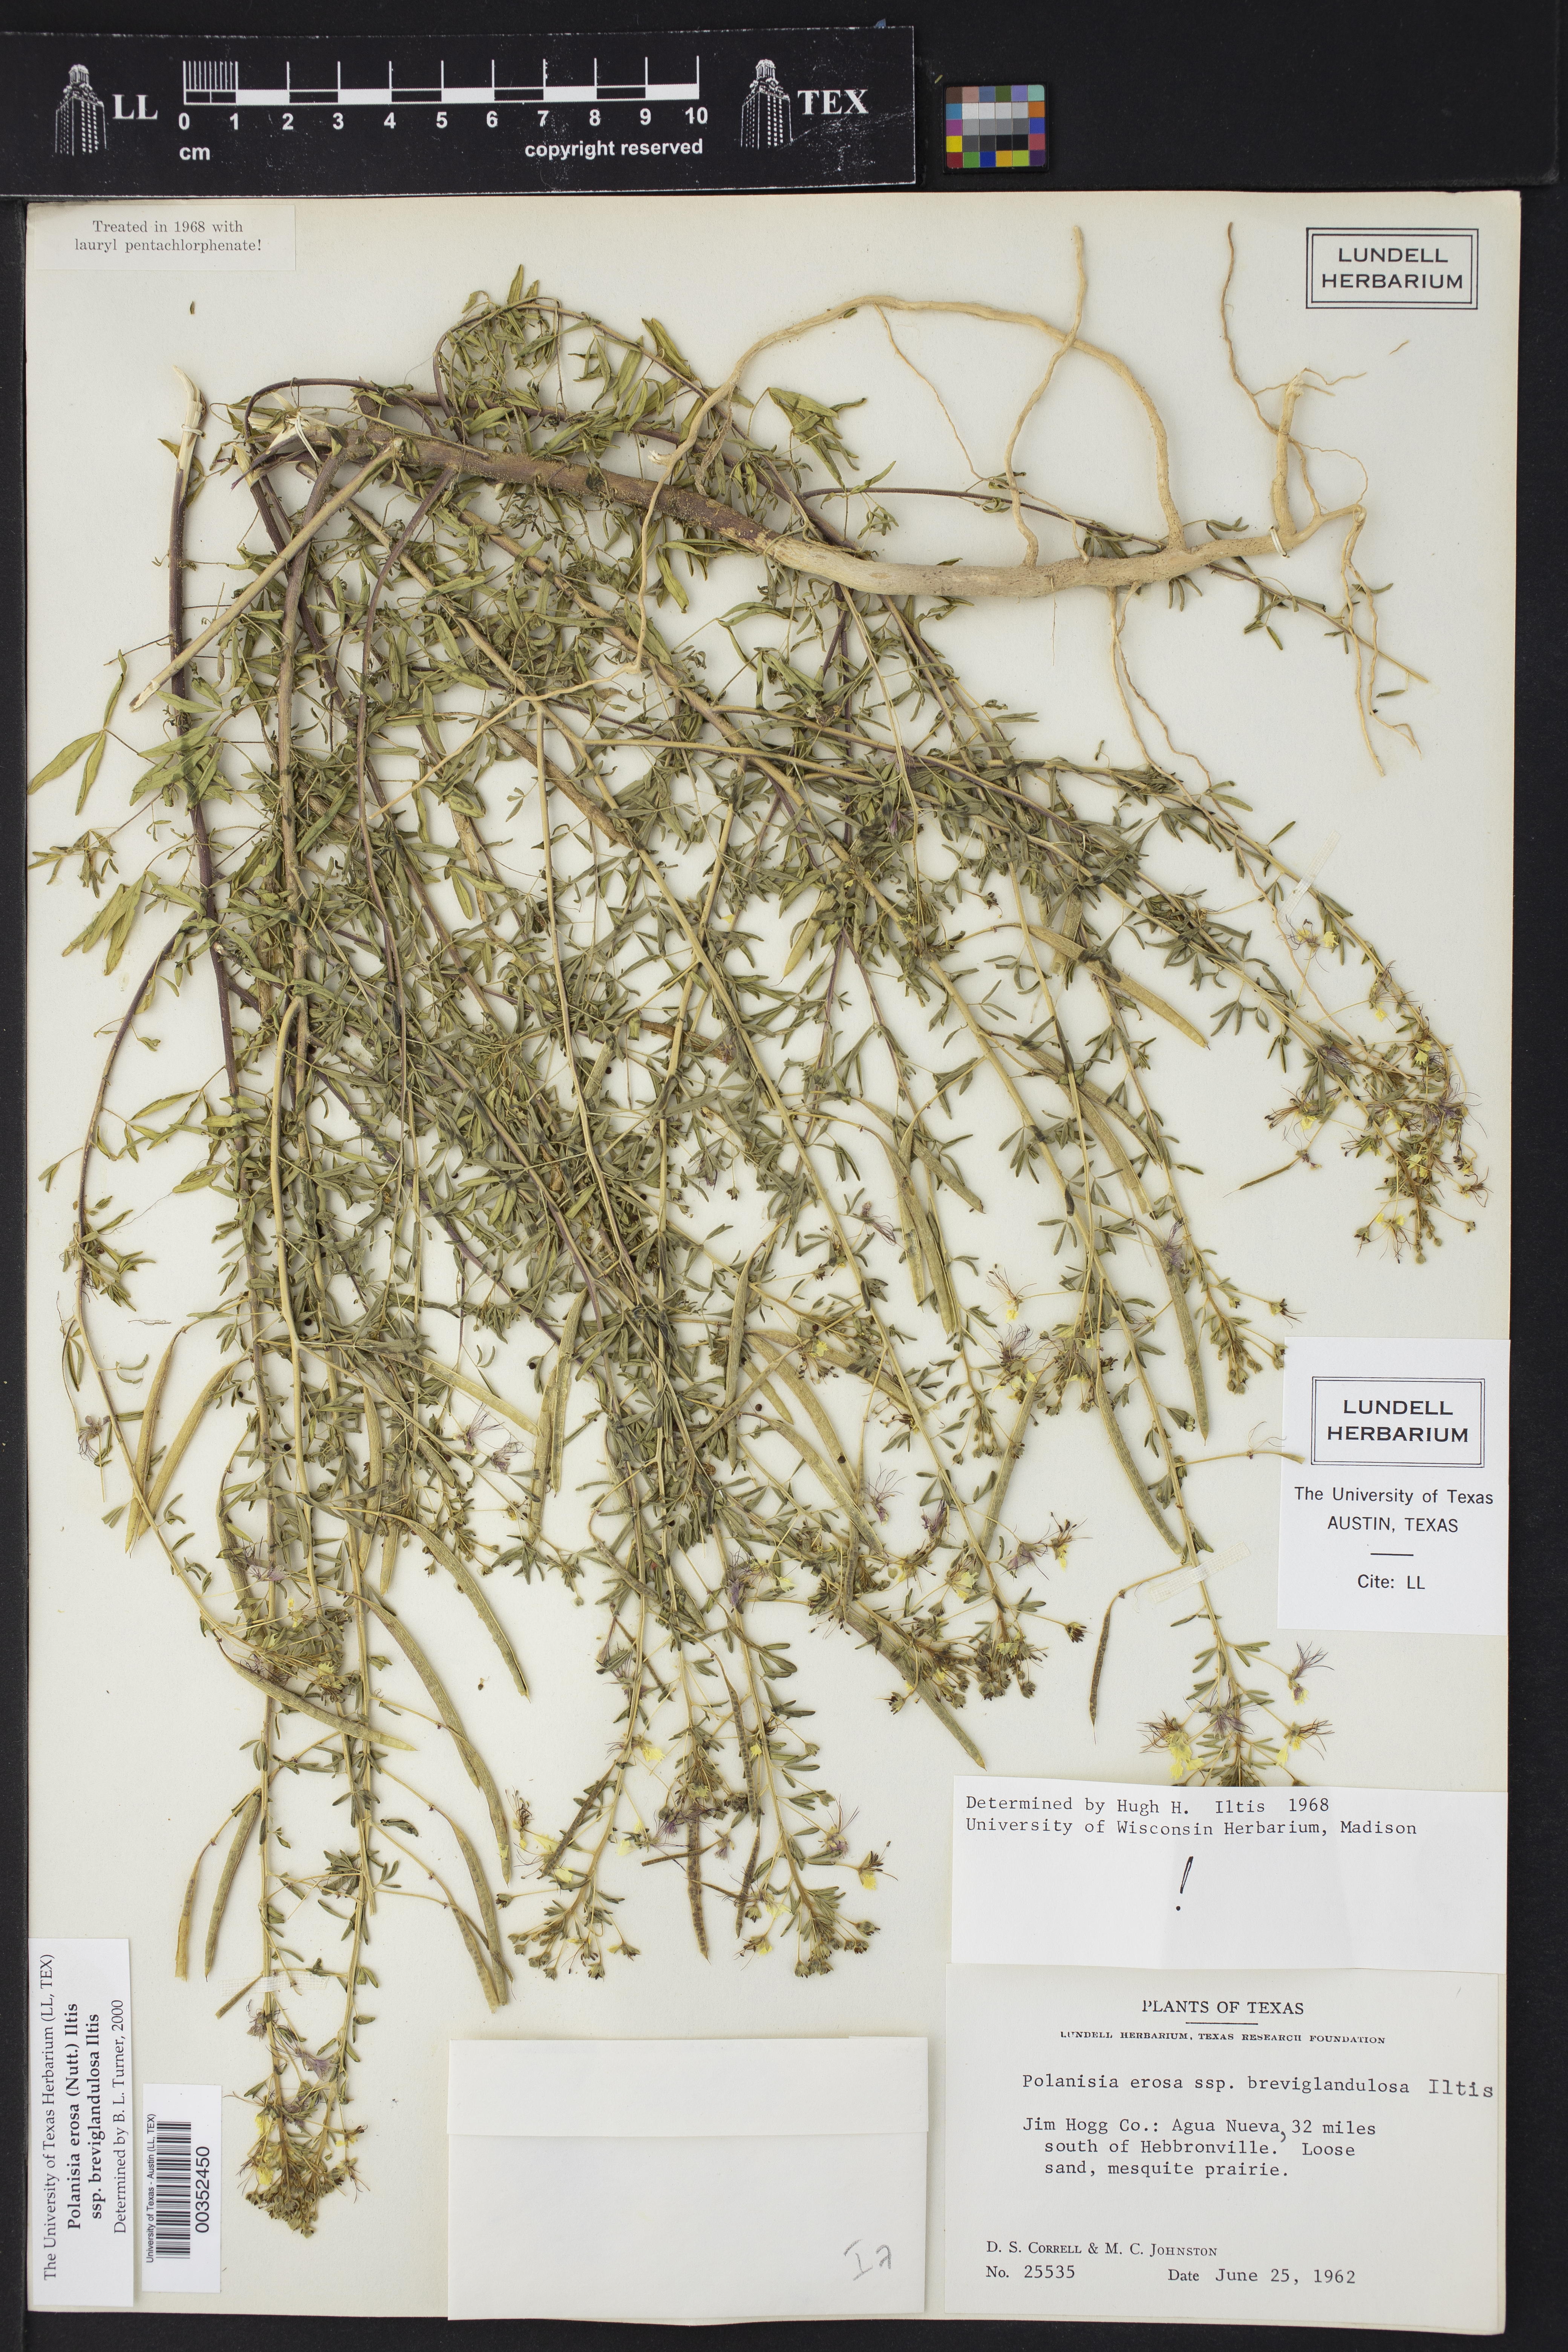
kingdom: Plantae
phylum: Tracheophyta
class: Magnoliopsida
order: Brassicales
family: Cleomaceae
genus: Polanisia
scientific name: Polanisia erosa
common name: Large clammyweed
